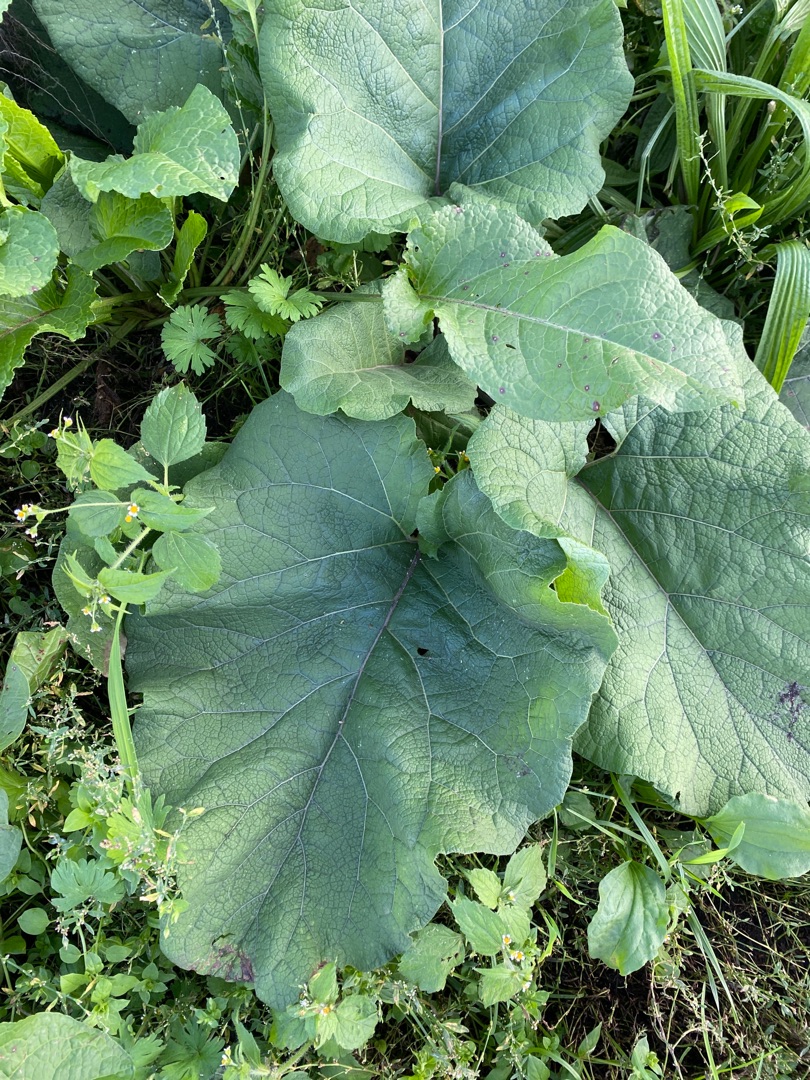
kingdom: Plantae
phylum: Tracheophyta
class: Magnoliopsida
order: Asterales
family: Asteraceae
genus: Arctium
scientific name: Arctium
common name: Burreslægten
